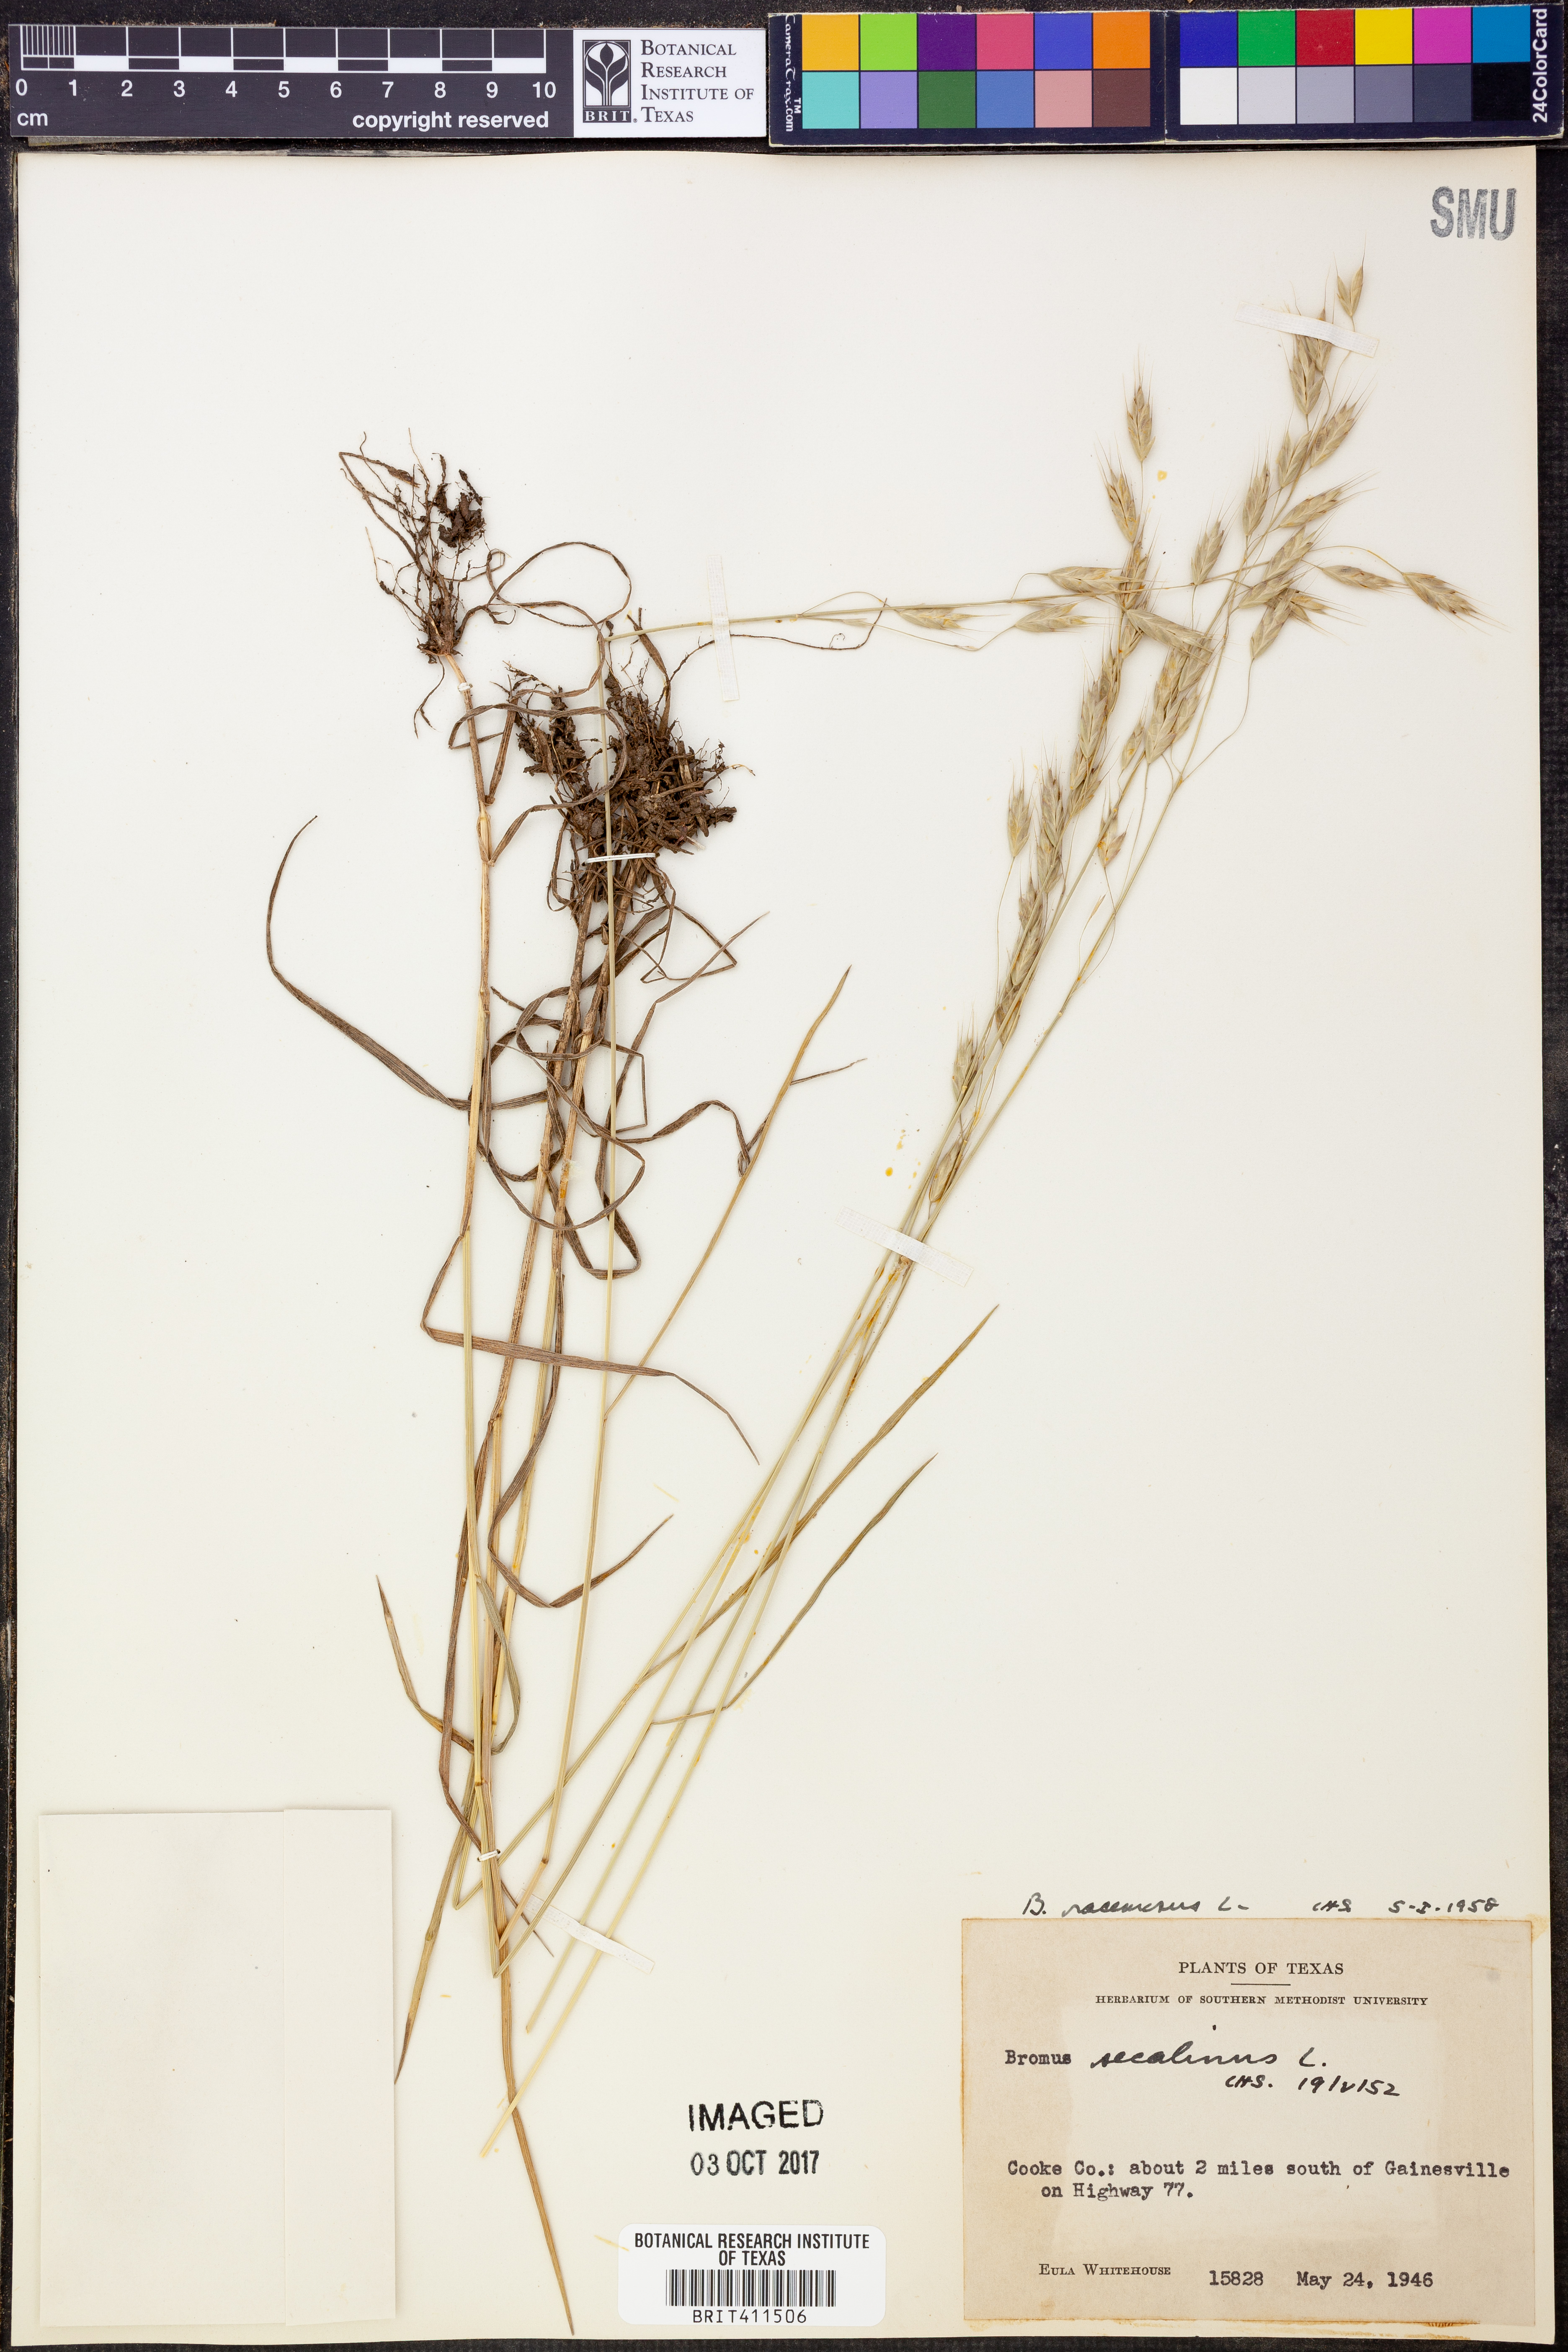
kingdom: Plantae
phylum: Tracheophyta
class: Liliopsida
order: Poales
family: Poaceae
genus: Bromus
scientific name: Bromus racemosus
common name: Bald brome
